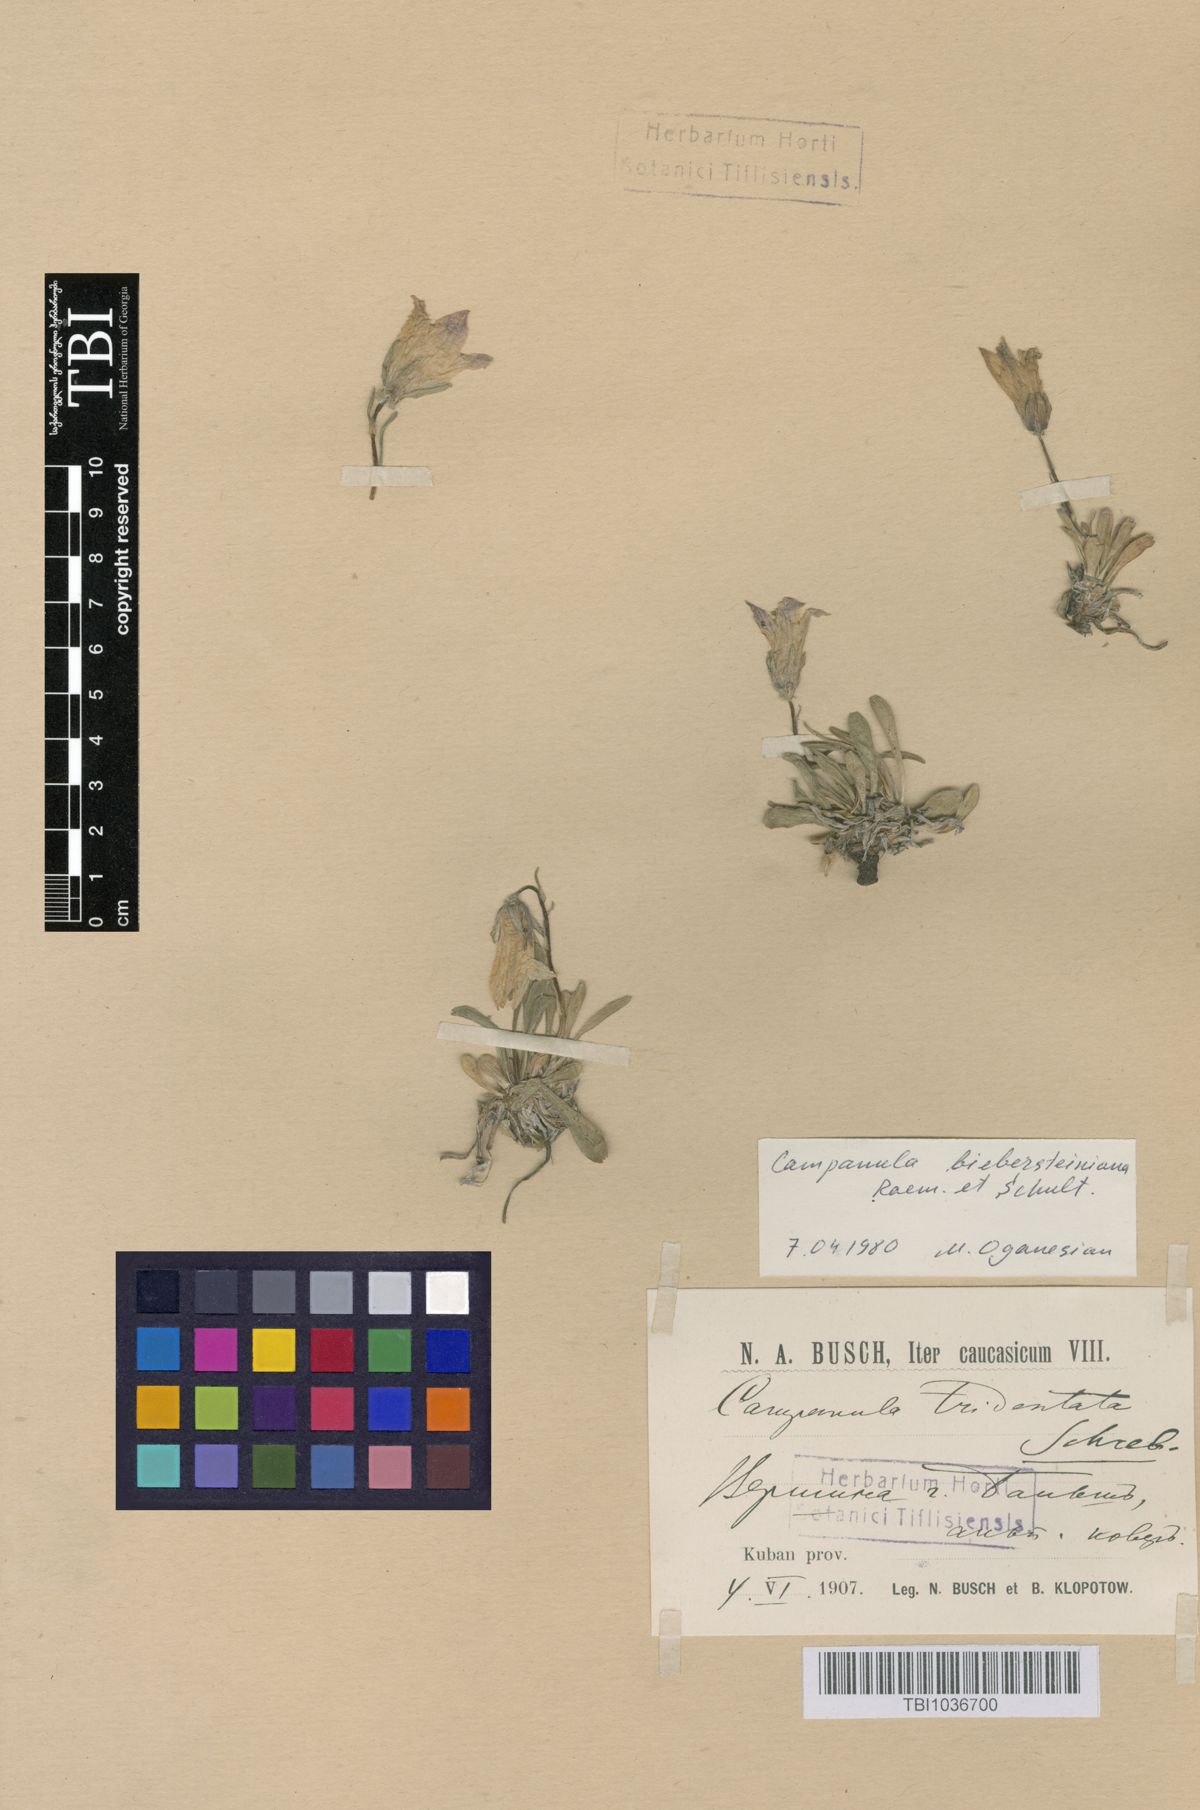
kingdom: Plantae
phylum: Tracheophyta
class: Magnoliopsida
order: Asterales
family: Campanulaceae
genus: Campanula
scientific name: Campanula tridentata
